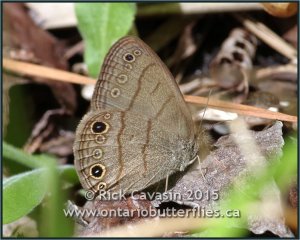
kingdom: Animalia
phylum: Arthropoda
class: Insecta
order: Lepidoptera
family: Nymphalidae
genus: Hermeuptychia
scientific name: Hermeuptychia hermes
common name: Carolina Satyr
